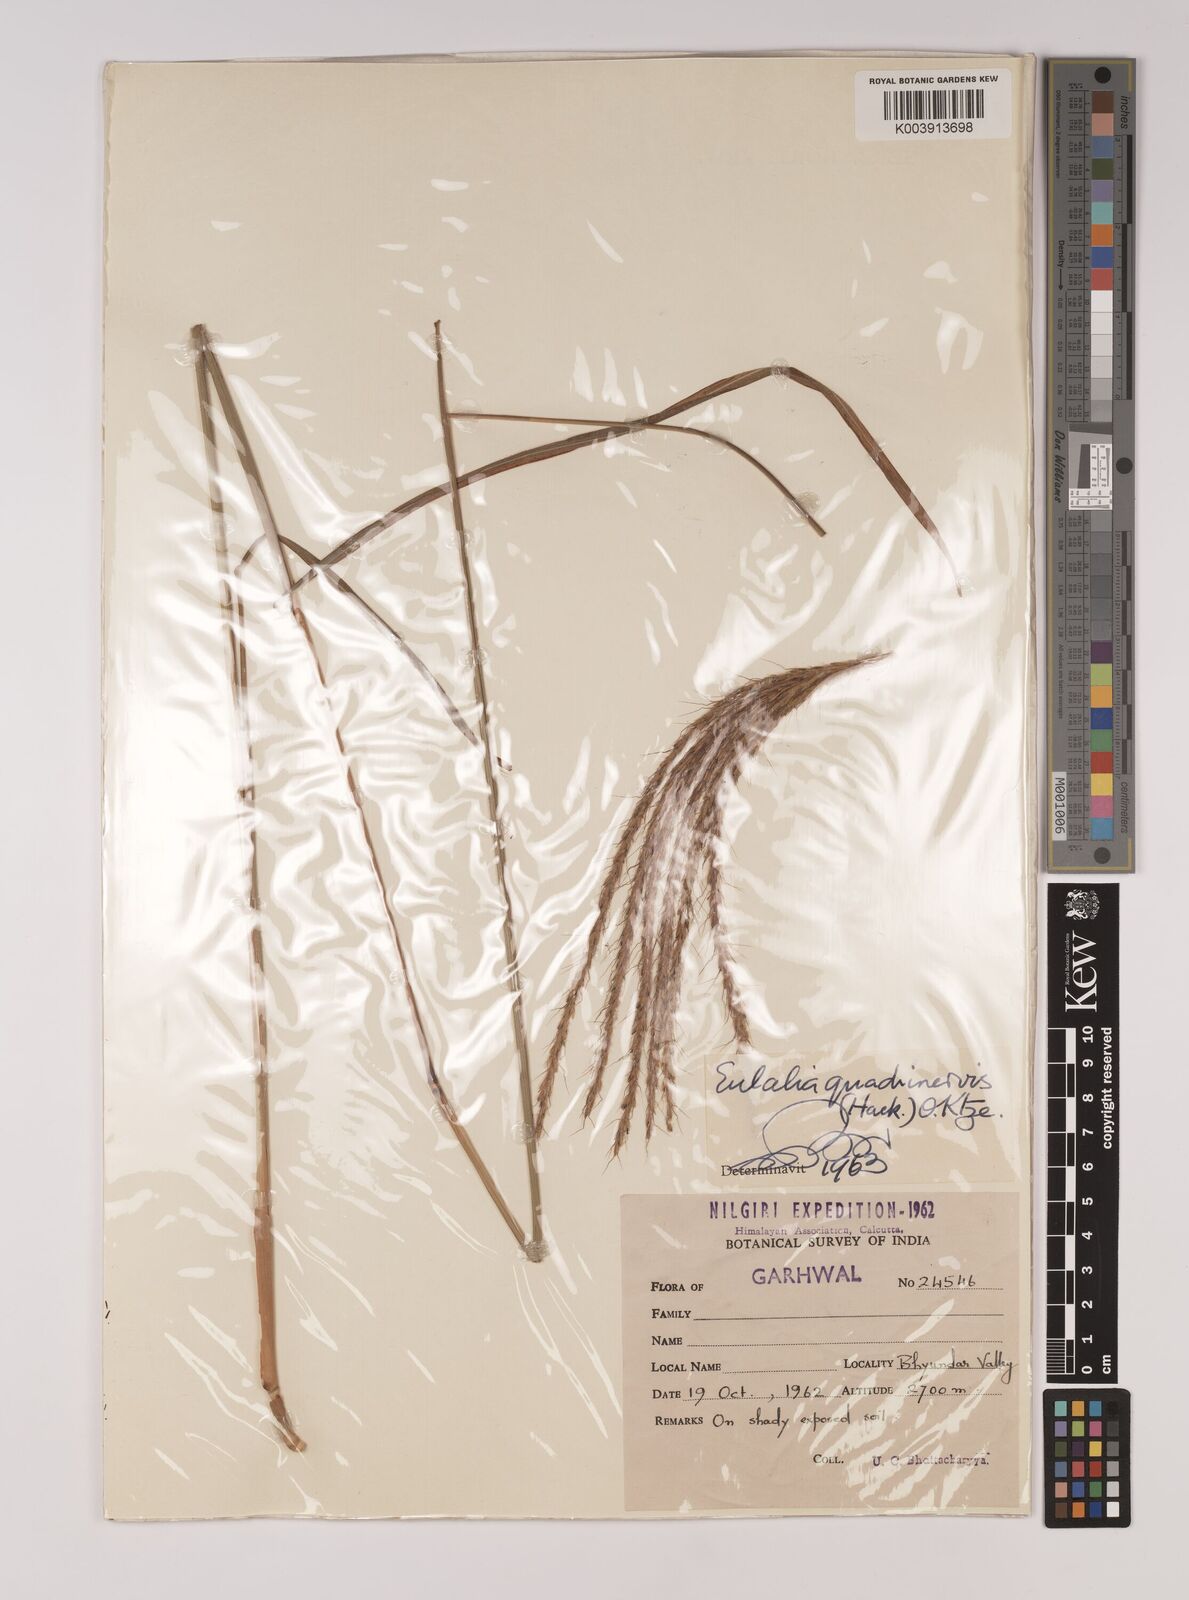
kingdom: Plantae
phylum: Tracheophyta
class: Liliopsida
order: Poales
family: Poaceae
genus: Pseudopogonatherum
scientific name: Pseudopogonatherum quadrinerve
